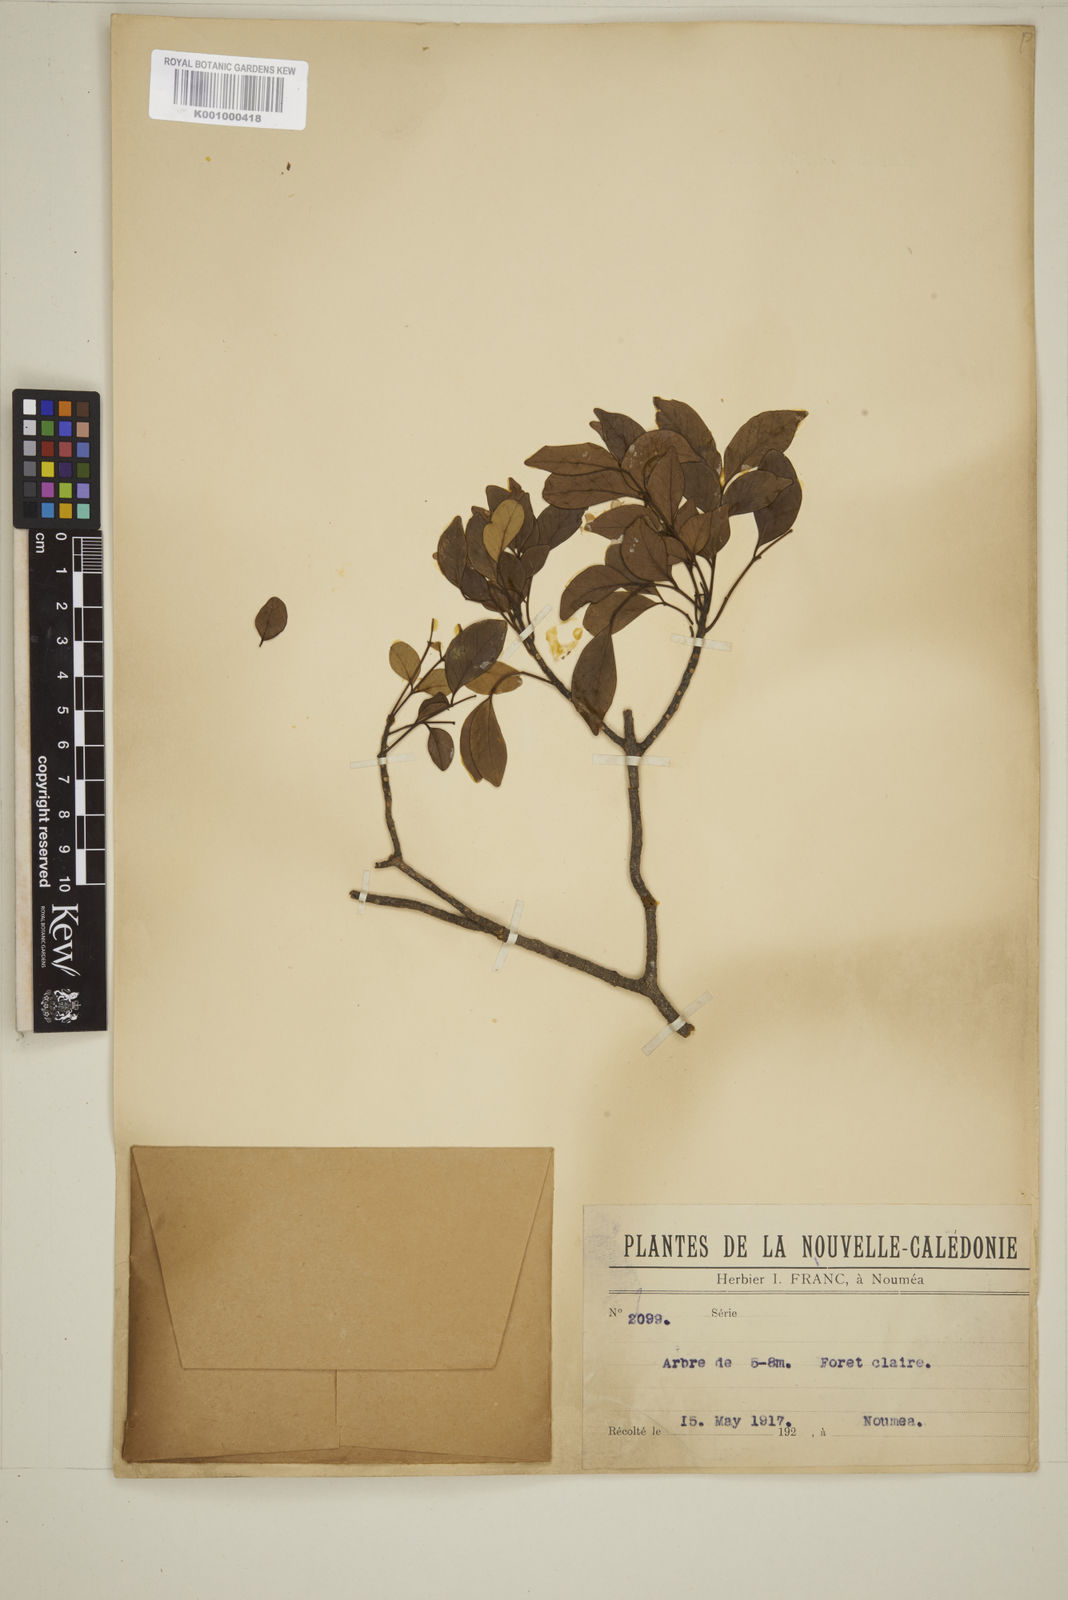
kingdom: Plantae
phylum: Tracheophyta
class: Magnoliopsida
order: Myrtales
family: Myrtaceae
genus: Eugenia
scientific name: Eugenia
